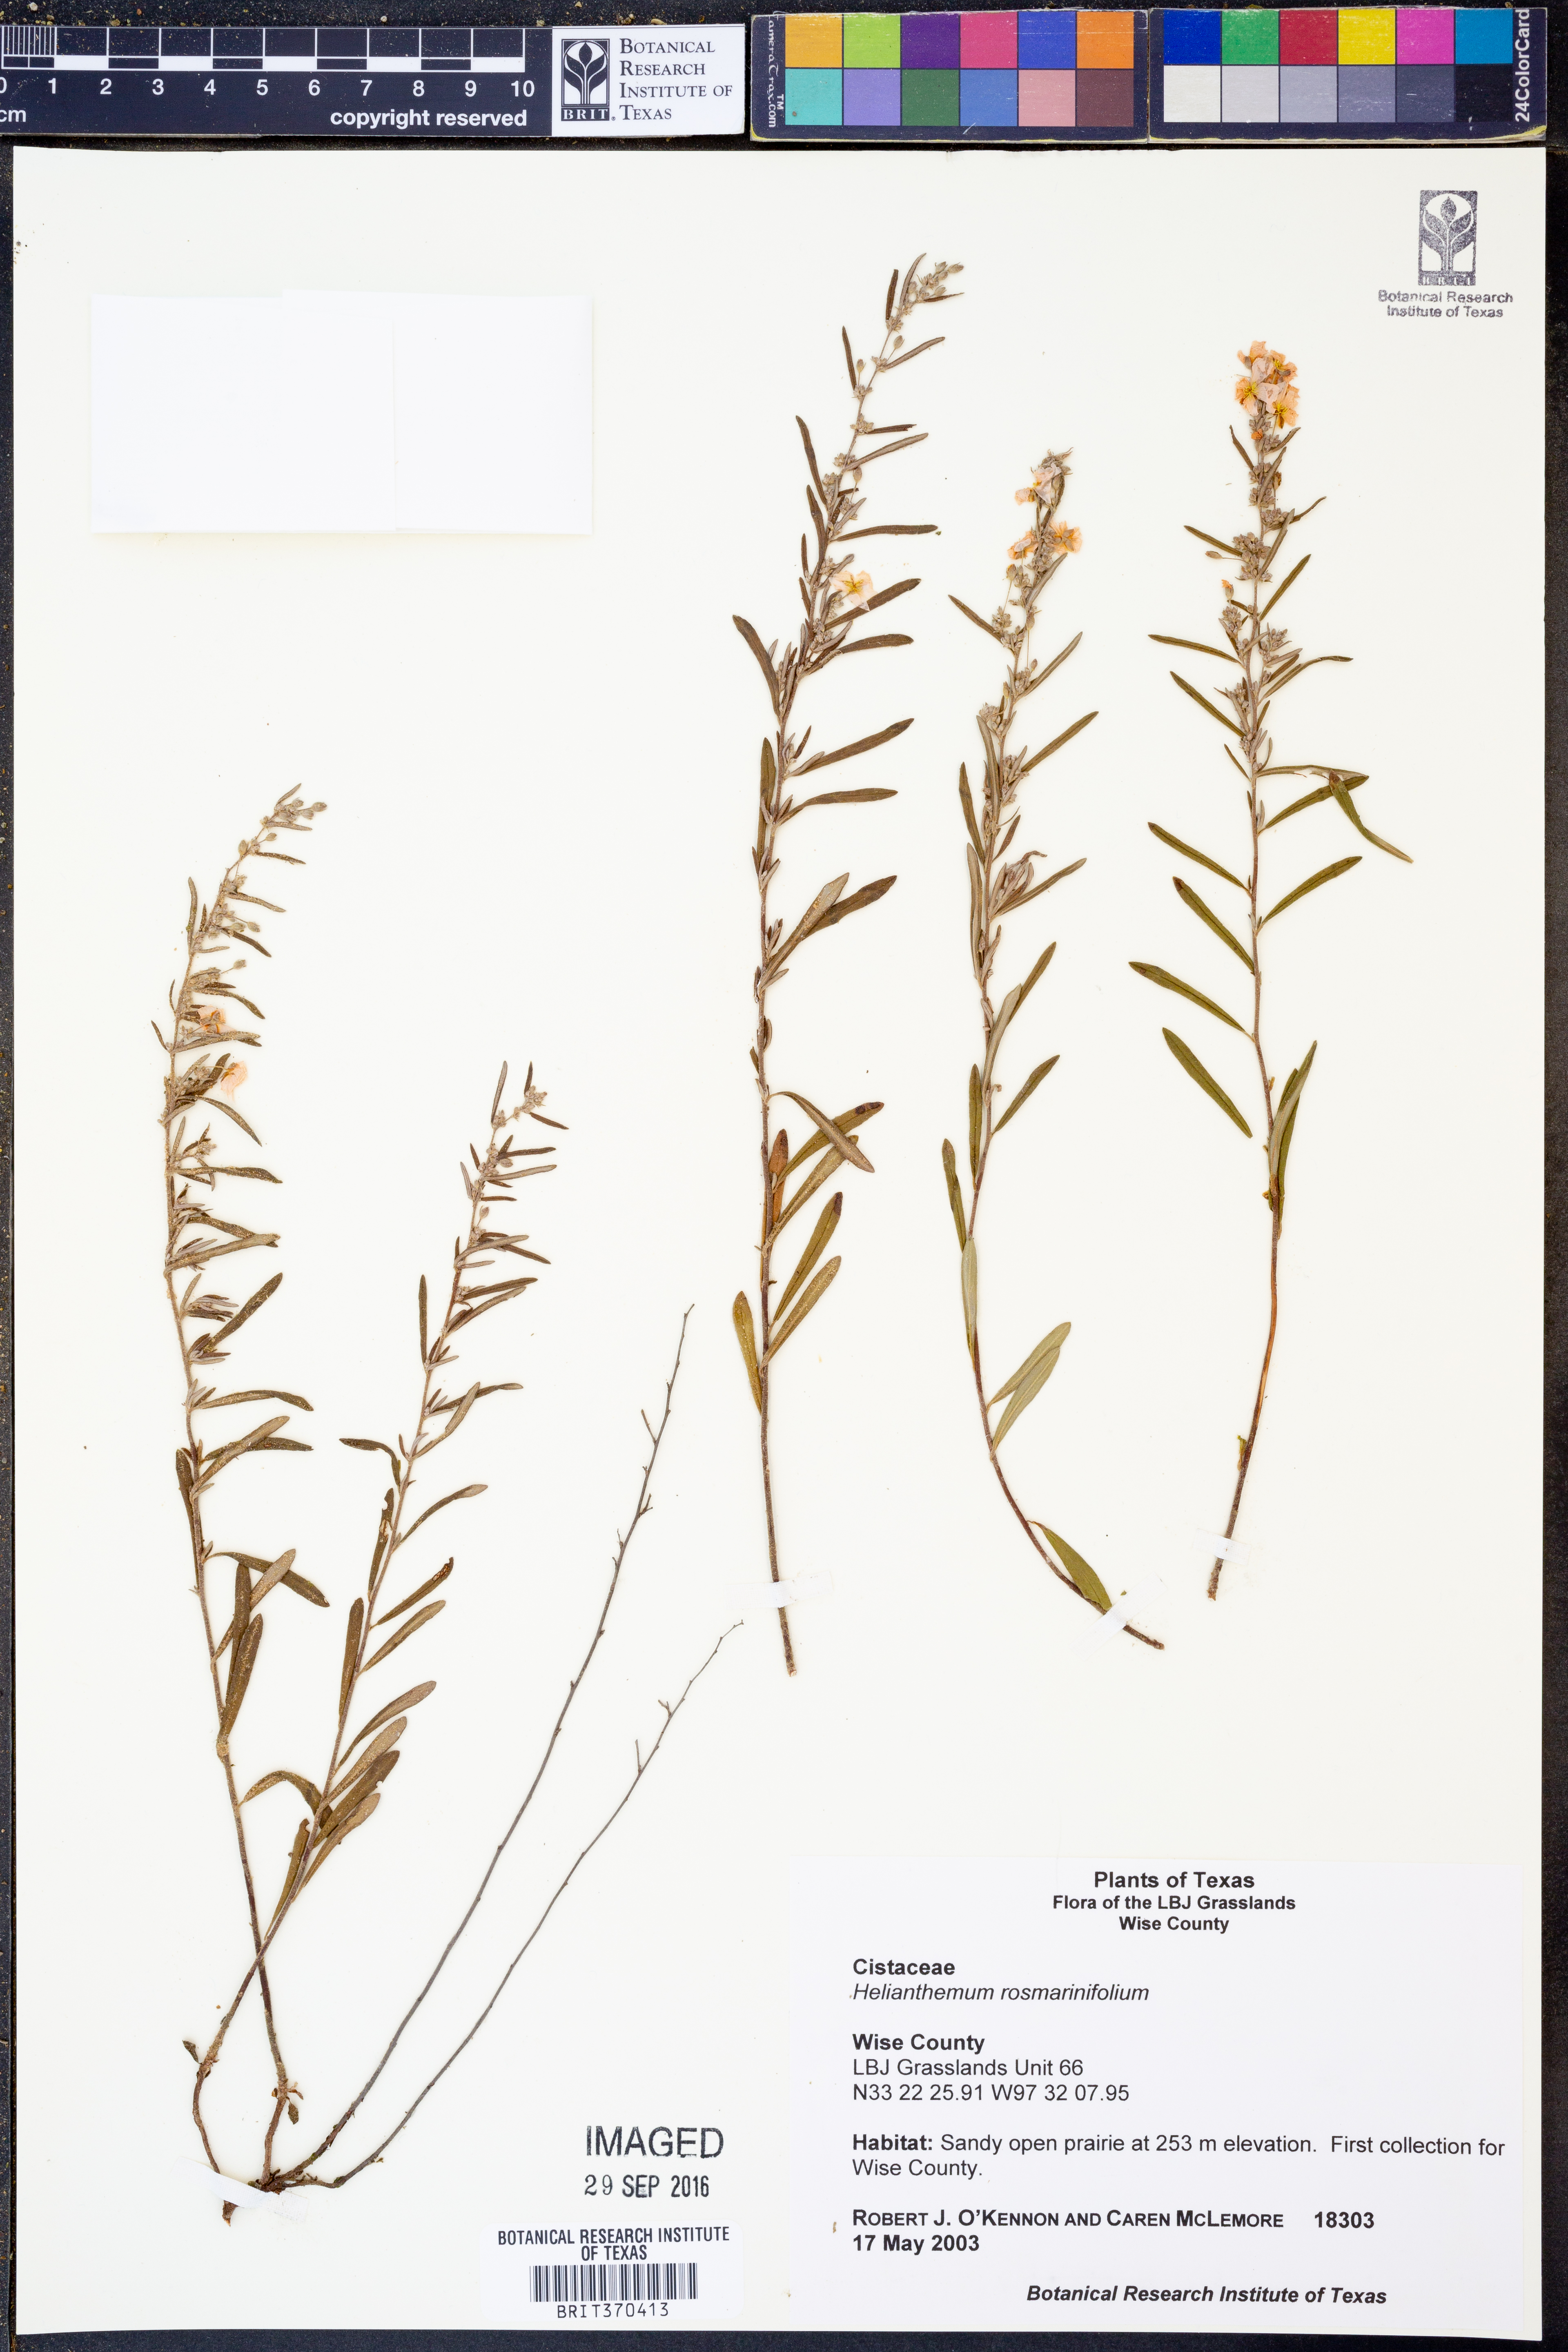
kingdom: Plantae
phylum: Tracheophyta
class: Magnoliopsida
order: Malvales
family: Cistaceae
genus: Crocanthemum
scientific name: Crocanthemum rosmarinifolium
